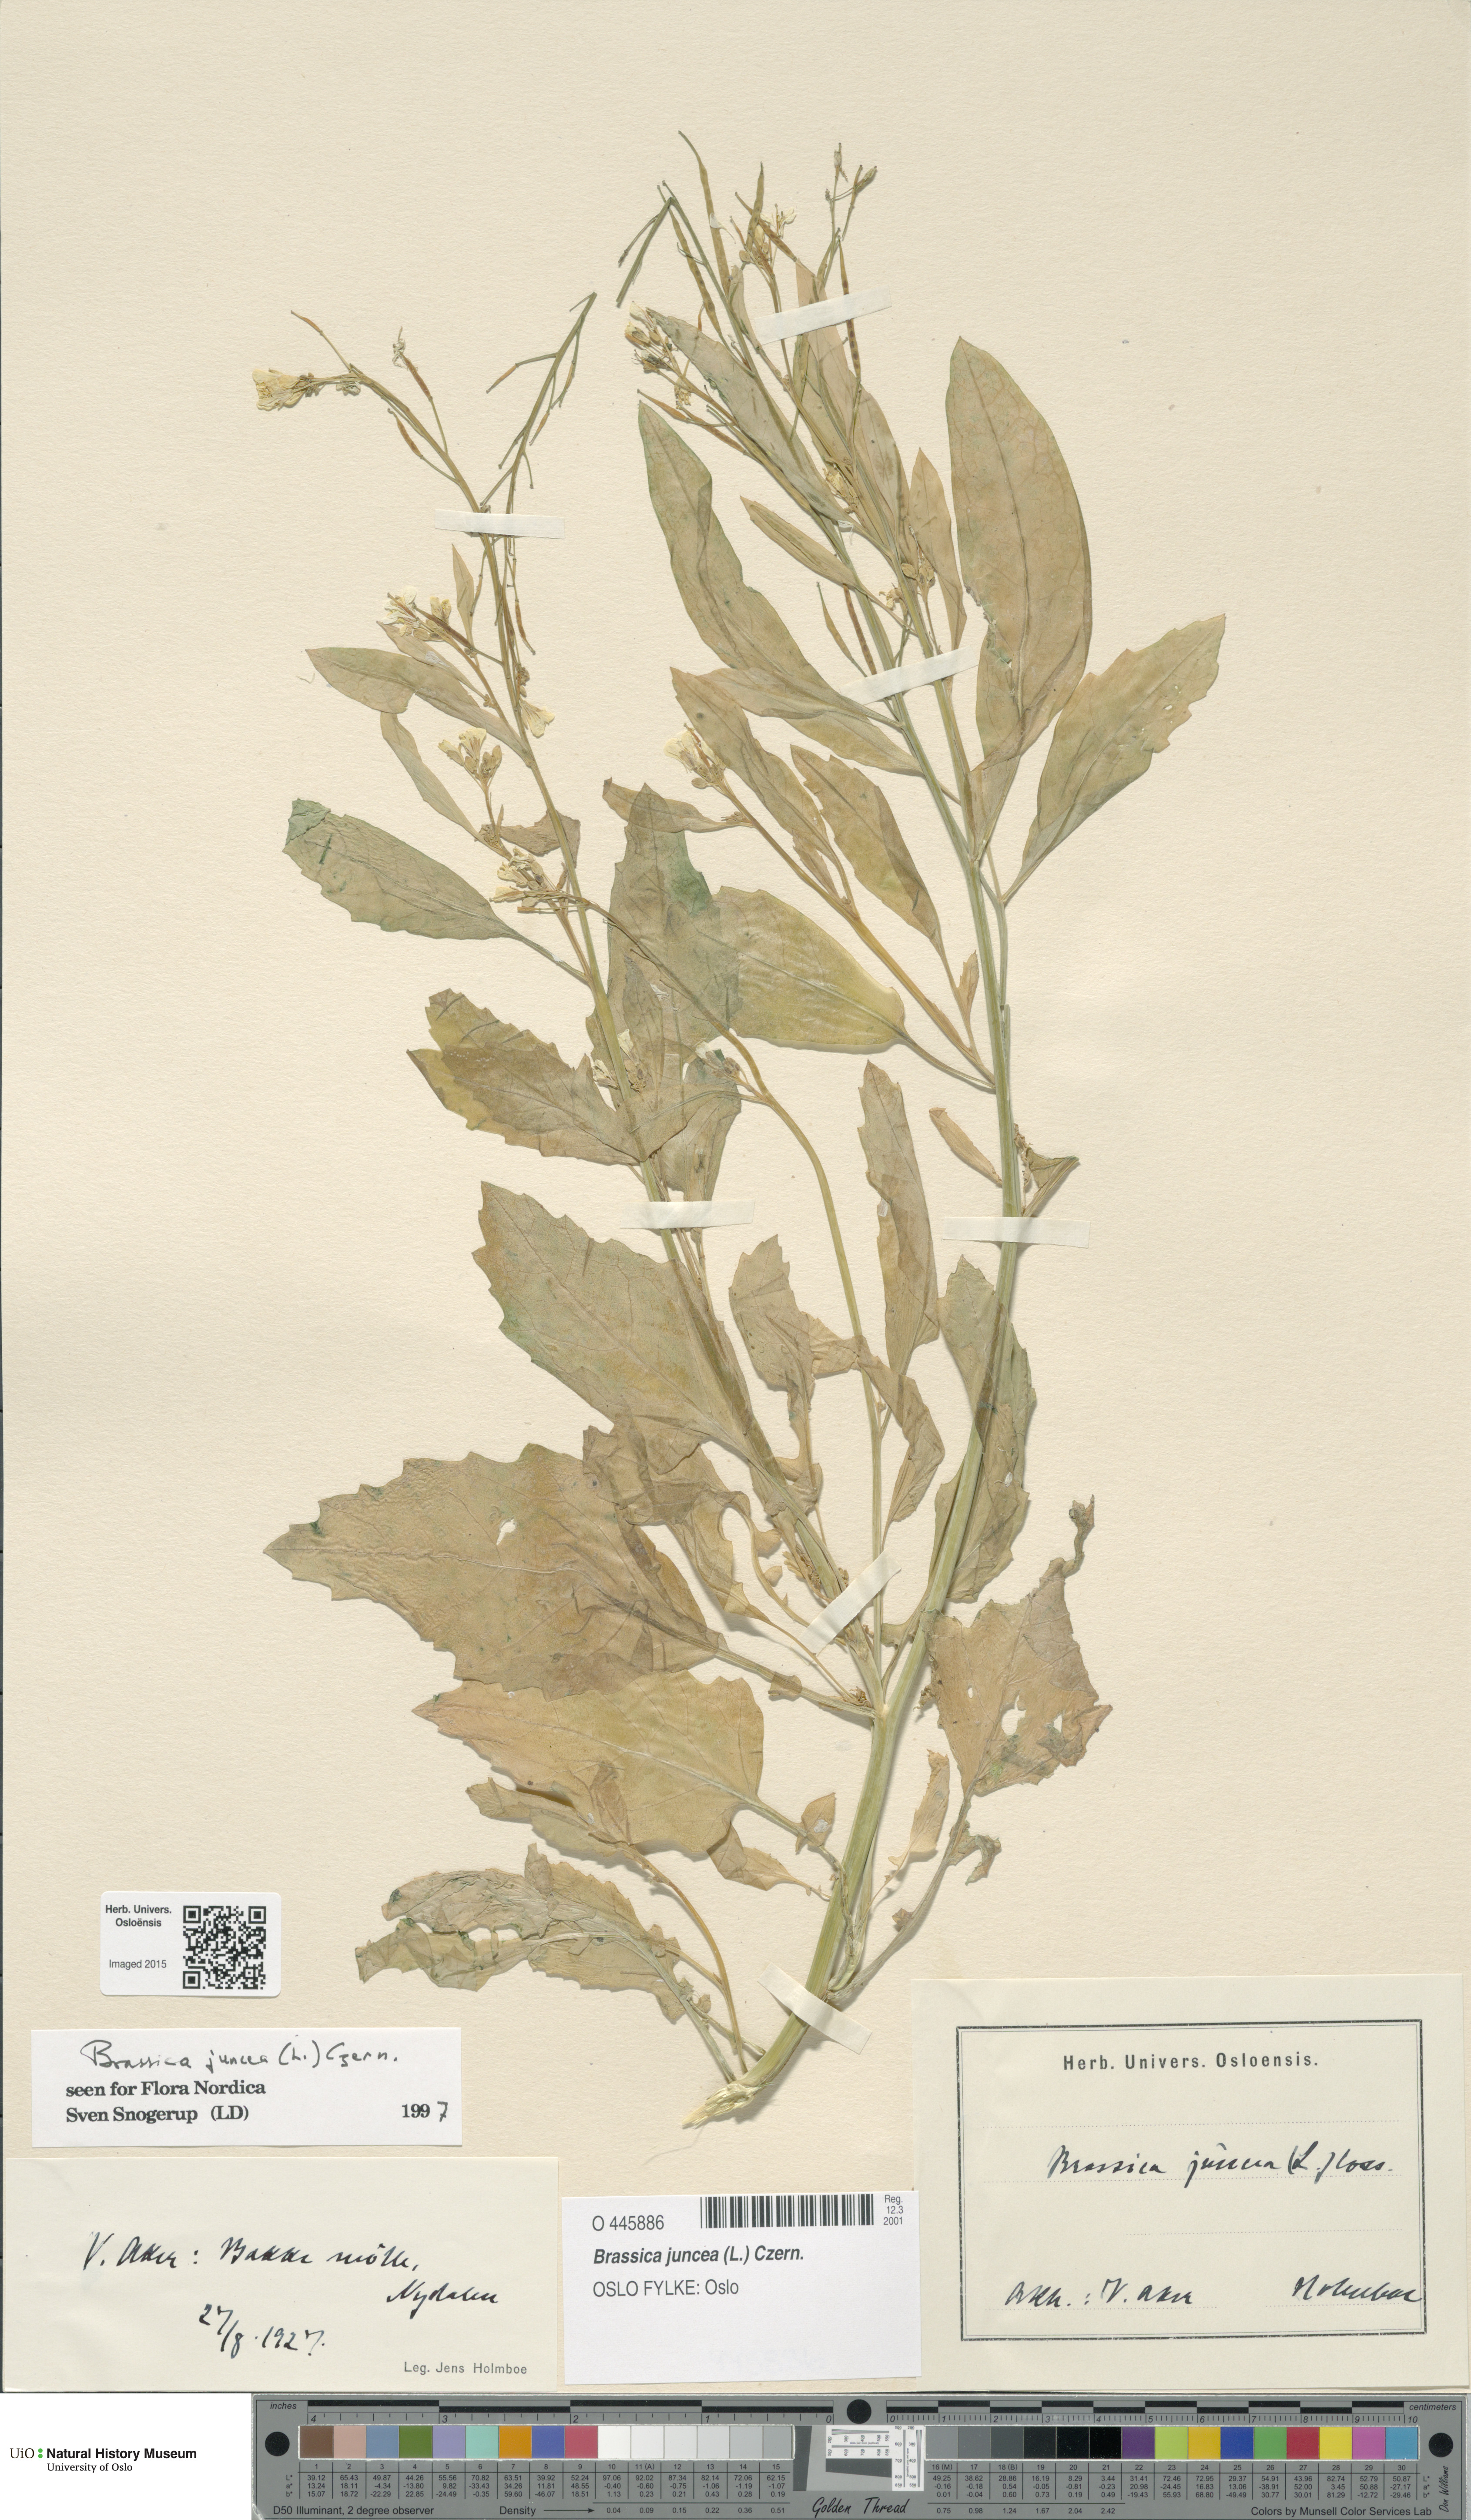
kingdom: Plantae
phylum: Tracheophyta
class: Magnoliopsida
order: Brassicales
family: Brassicaceae
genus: Brassica
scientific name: Brassica juncea
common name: Brown mustard
